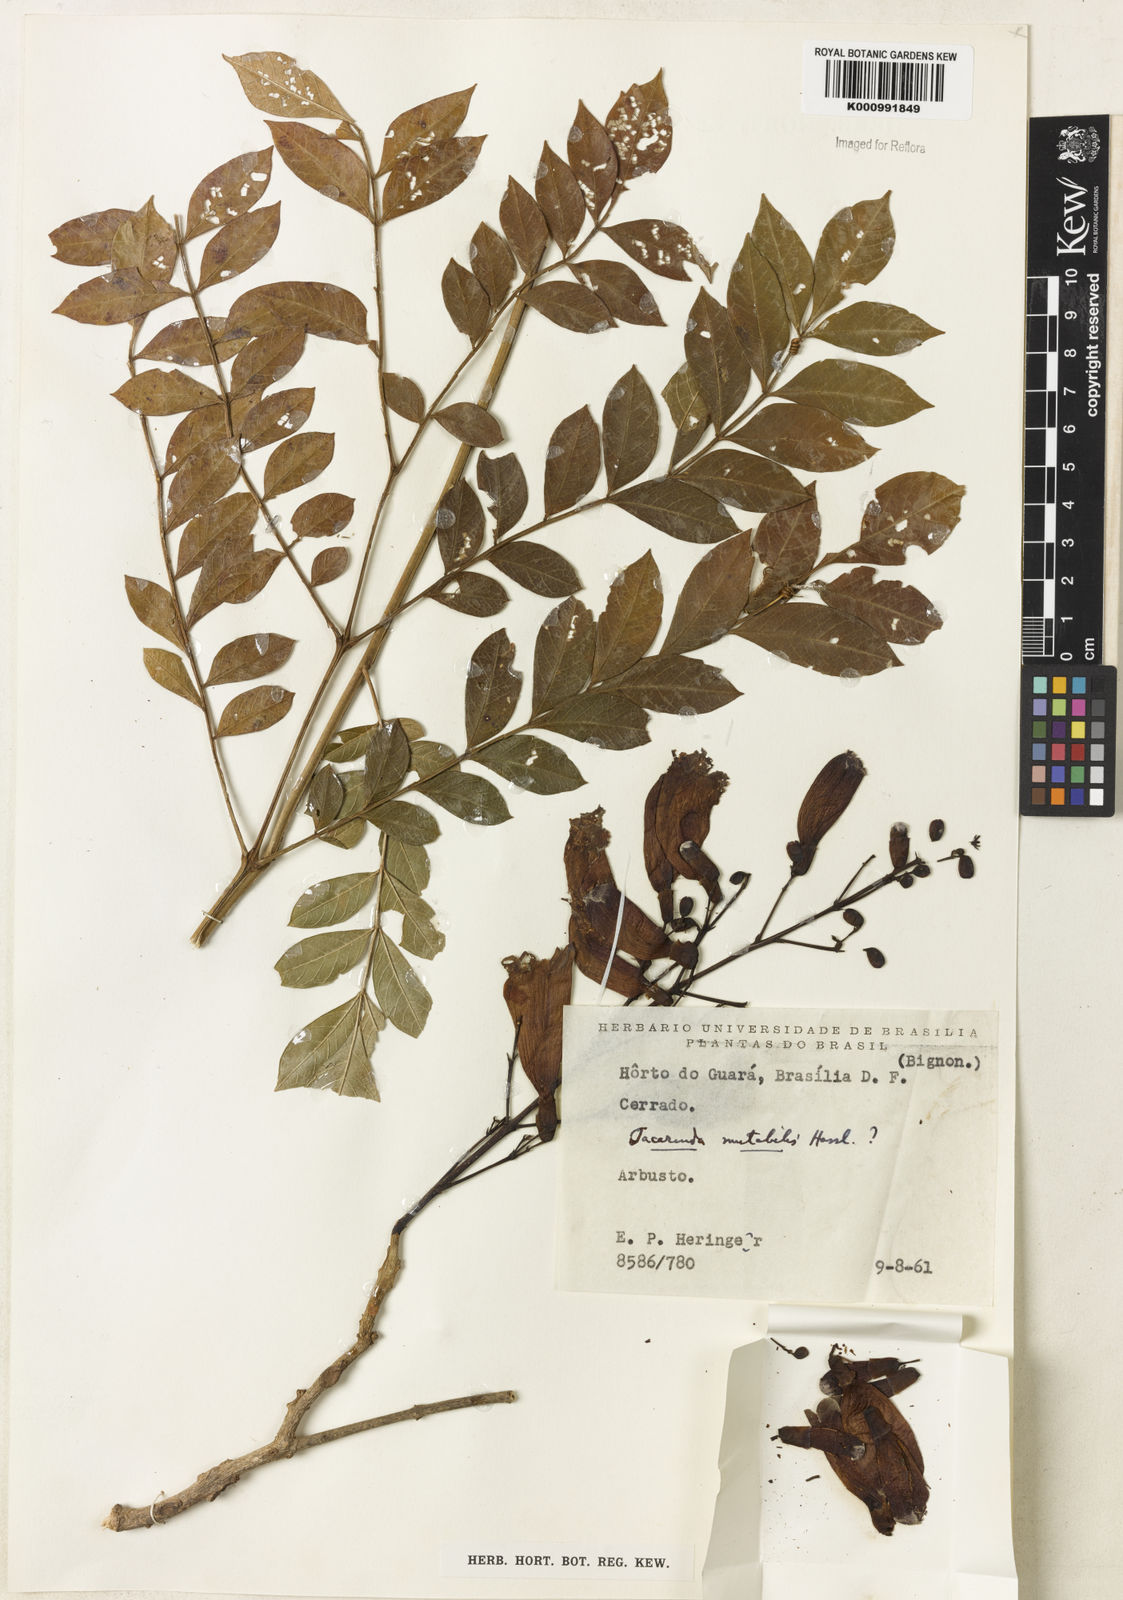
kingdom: Plantae
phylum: Tracheophyta
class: Magnoliopsida
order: Lamiales
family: Bignoniaceae
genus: Jacaranda
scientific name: Jacaranda mutabilis
